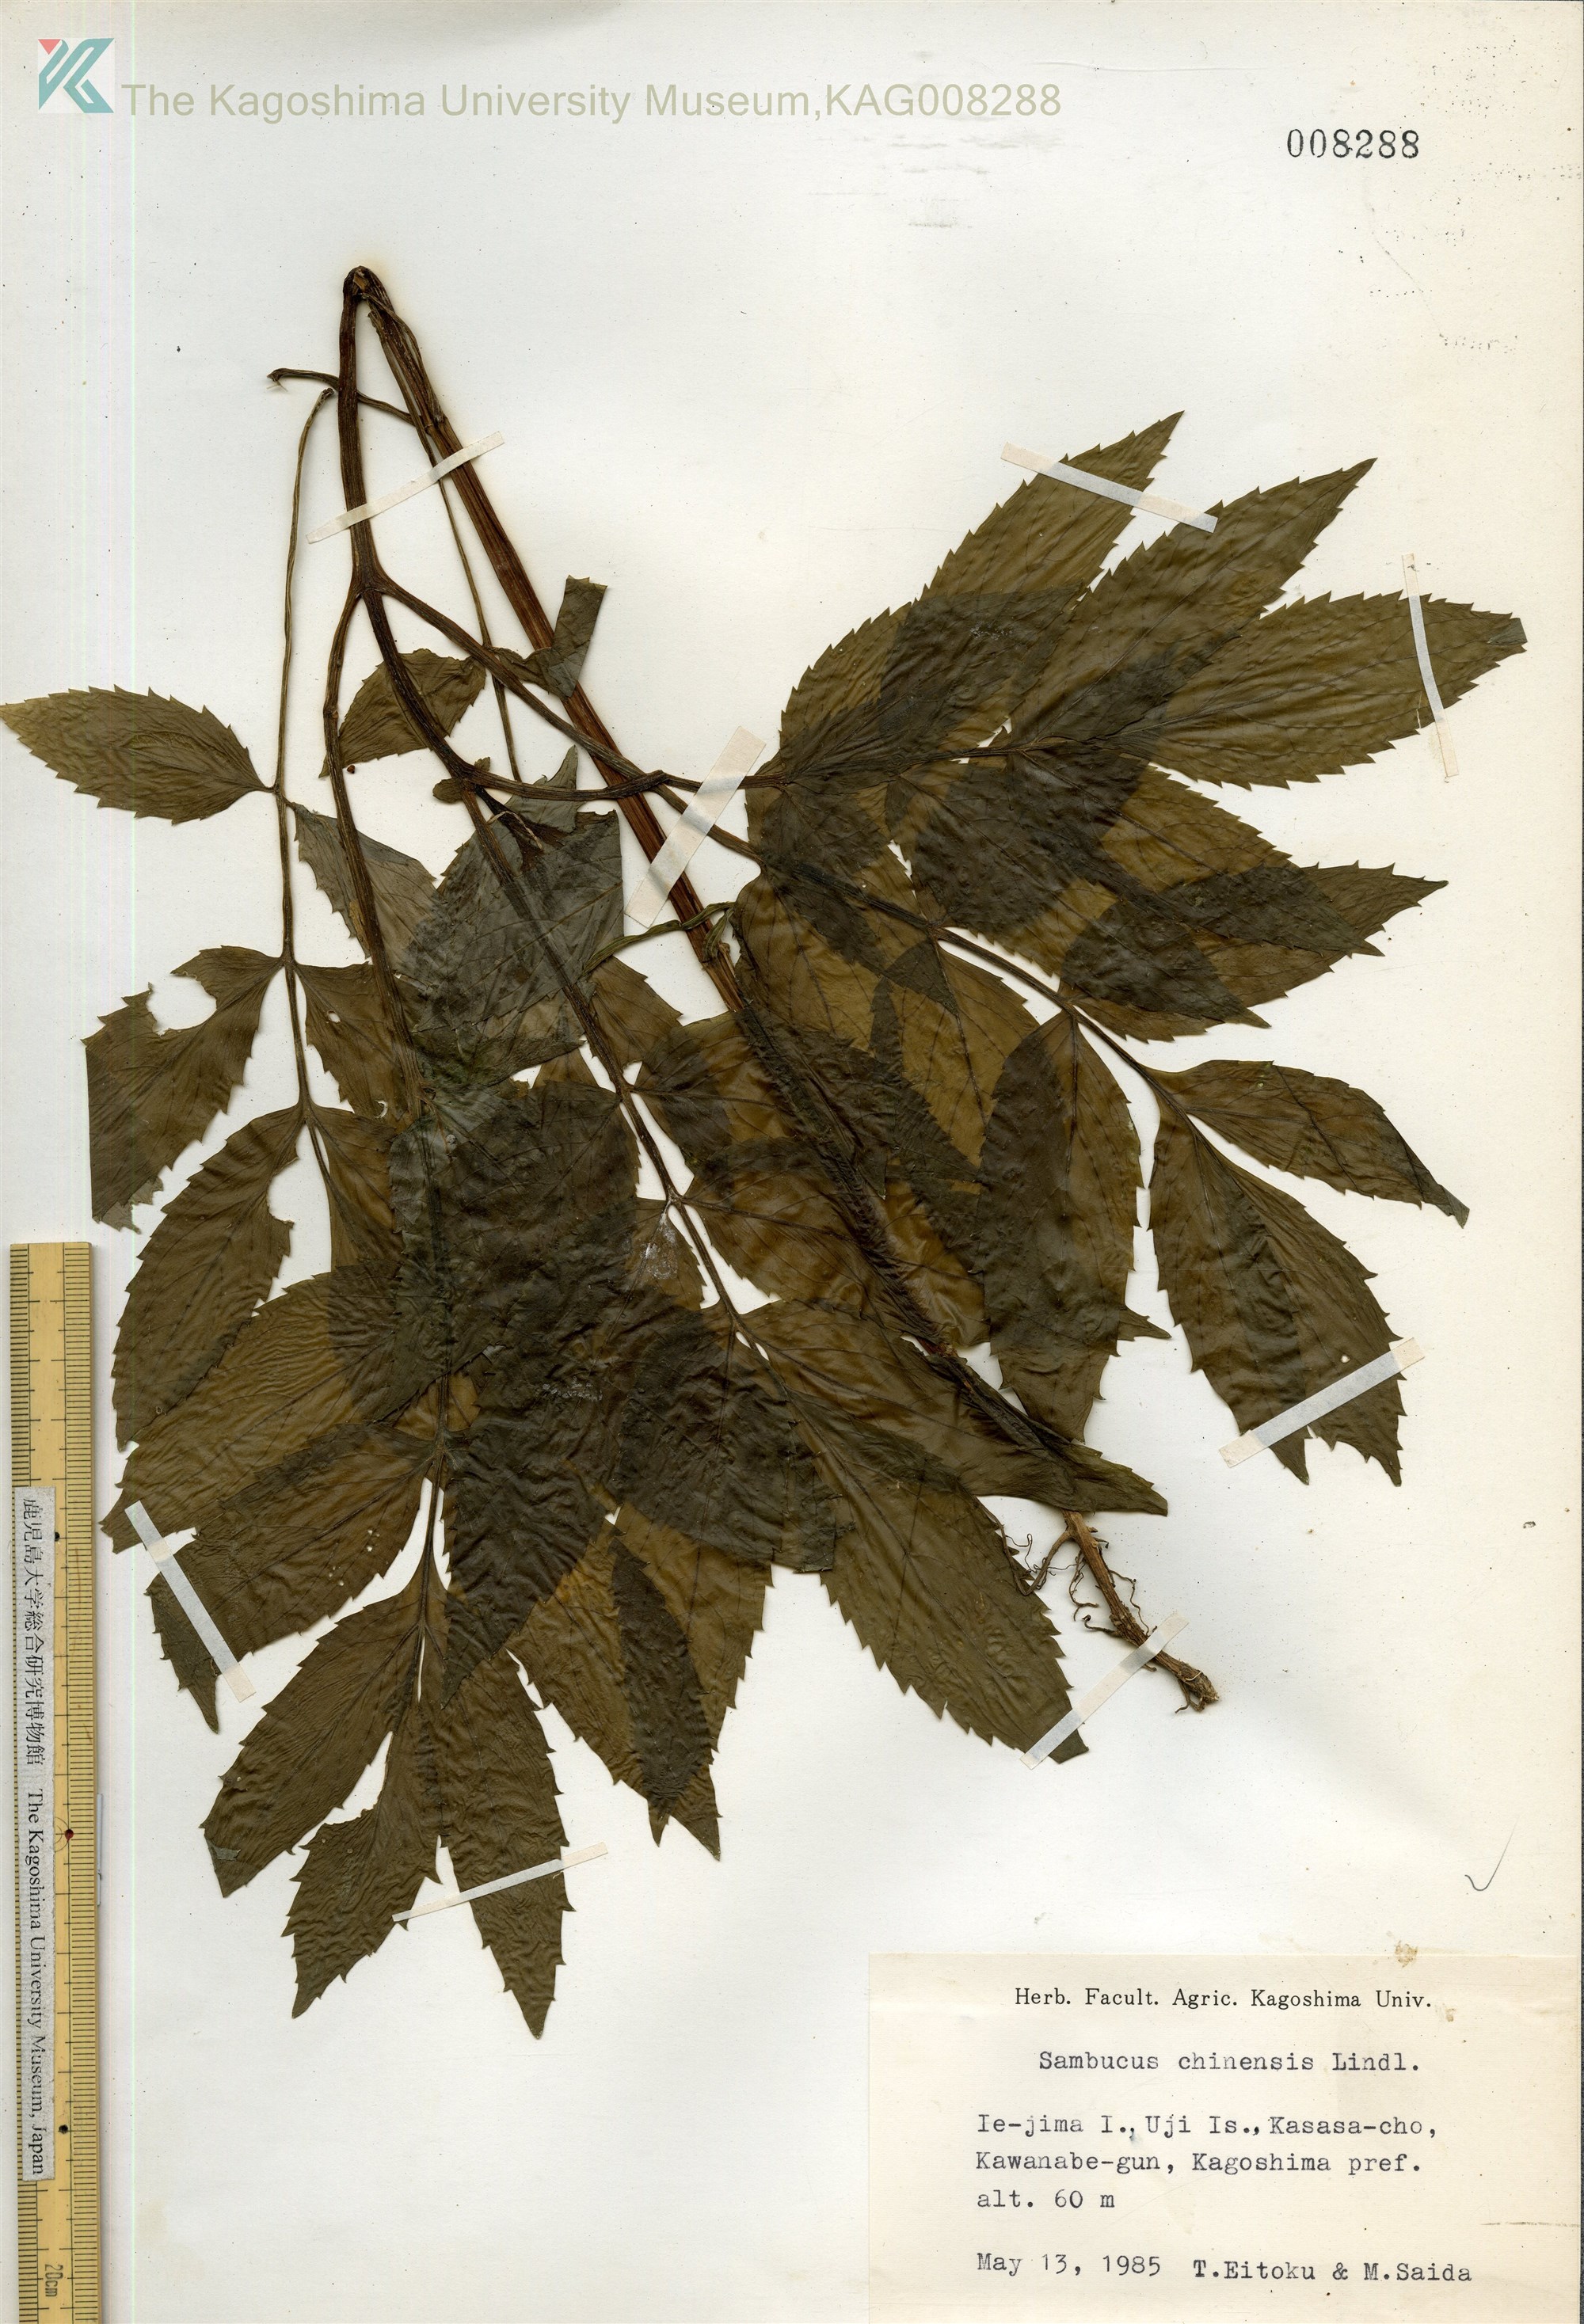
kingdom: Plantae
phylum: Tracheophyta
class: Magnoliopsida
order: Dipsacales
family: Viburnaceae
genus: Sambucus
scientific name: Sambucus javanica
